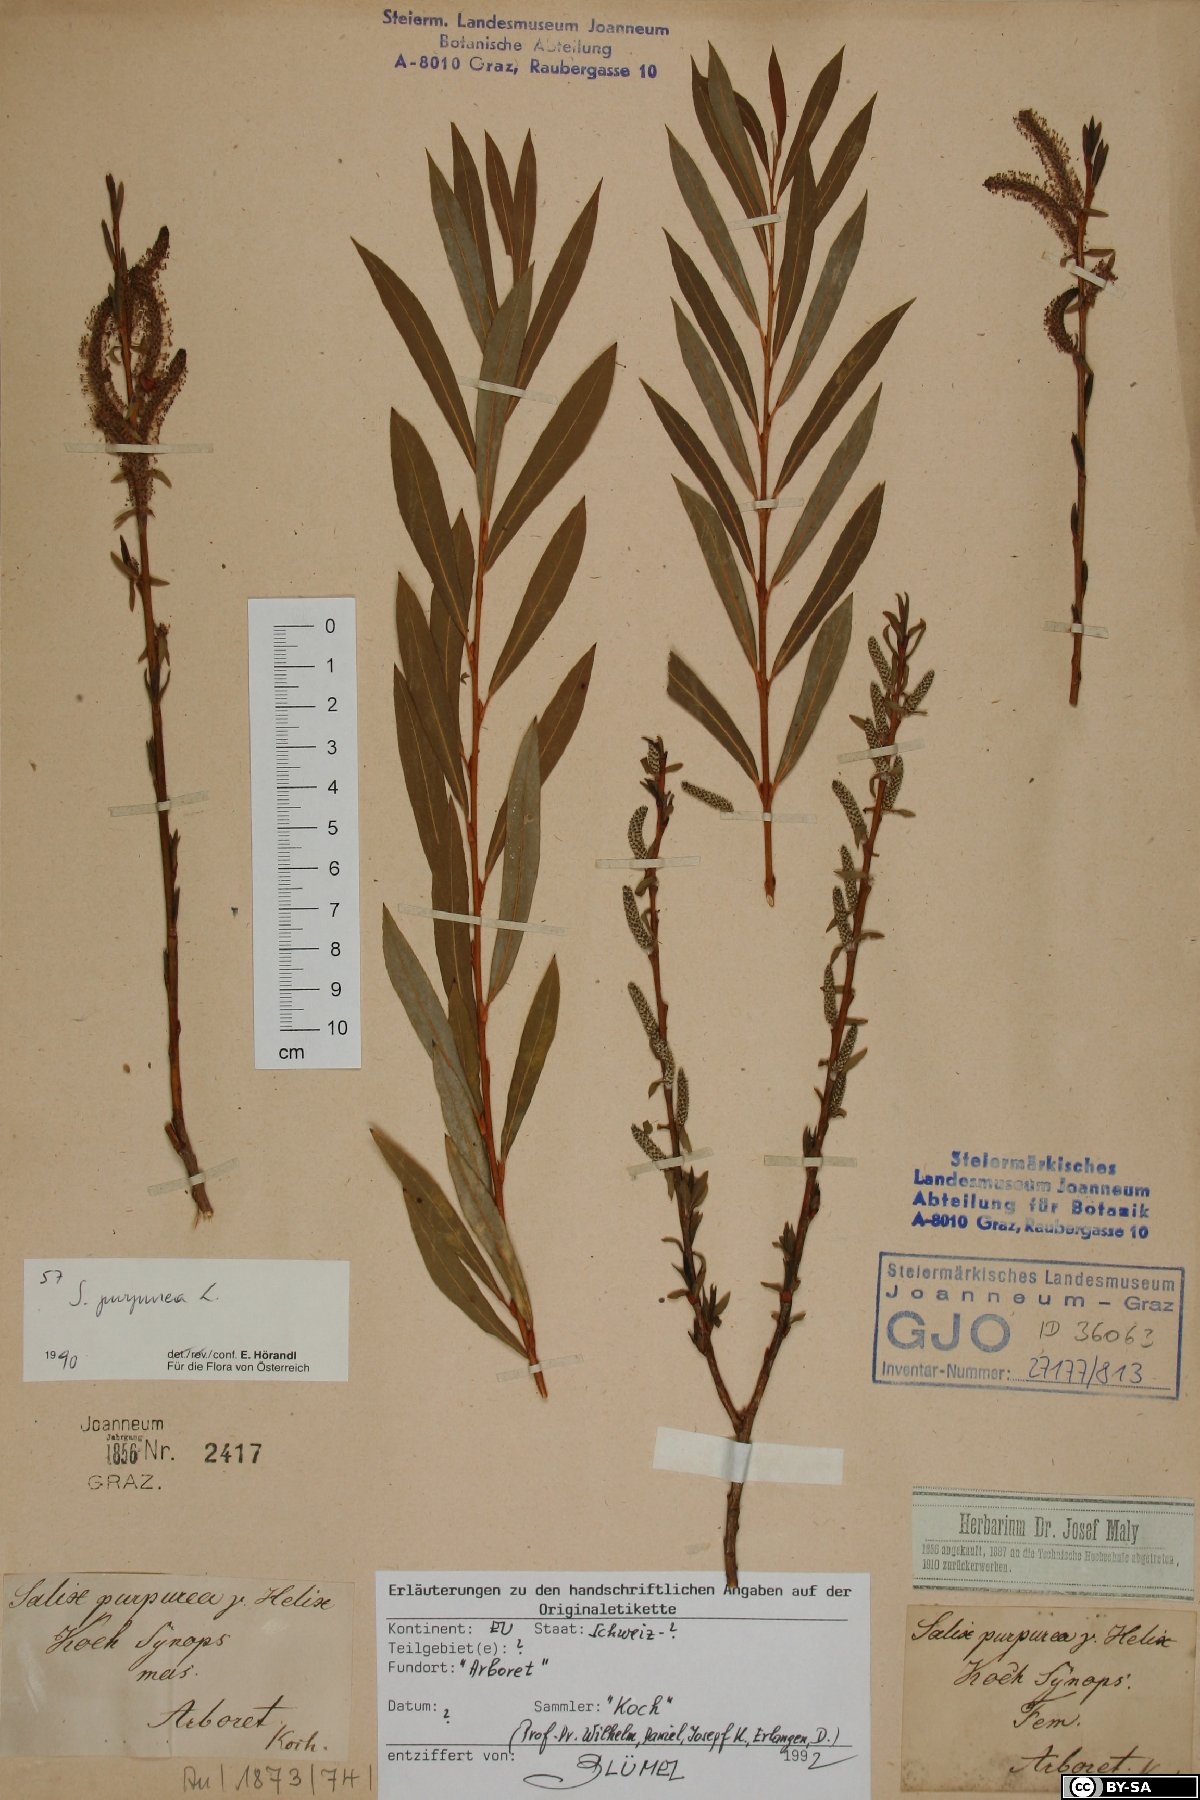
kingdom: Plantae
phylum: Tracheophyta
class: Magnoliopsida
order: Malpighiales
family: Salicaceae
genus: Salix
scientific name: Salix purpurea
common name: Purple willow
